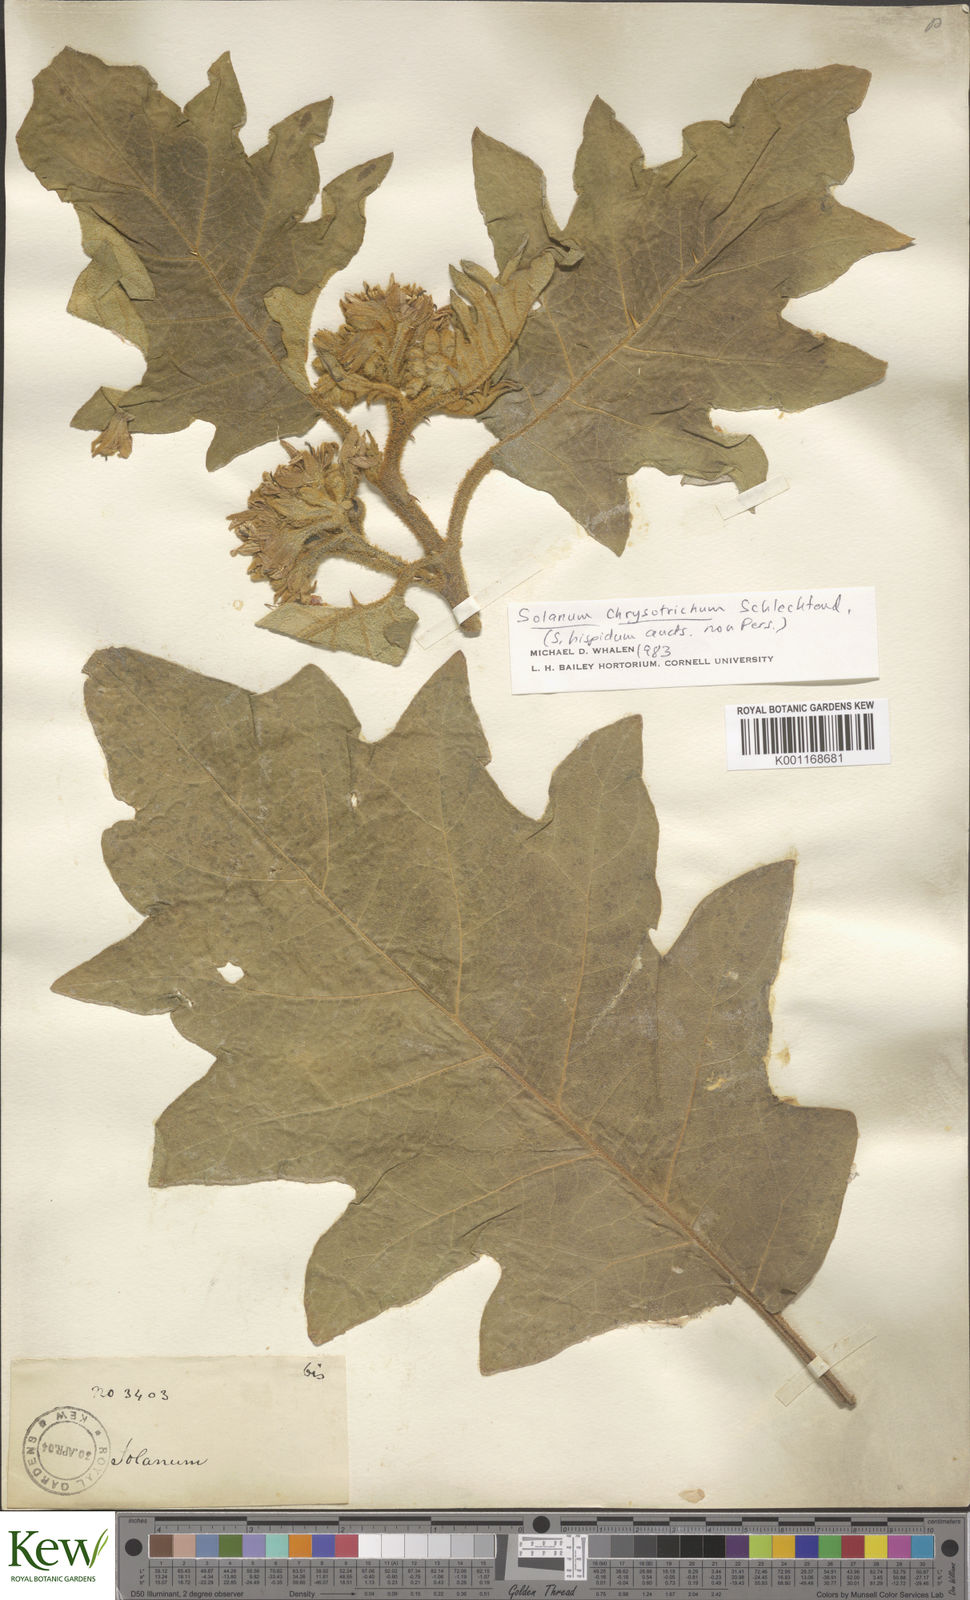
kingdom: Plantae
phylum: Tracheophyta
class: Magnoliopsida
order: Solanales
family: Solanaceae
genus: Solanum
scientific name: Solanum chrysotrichum
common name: Nightshade
